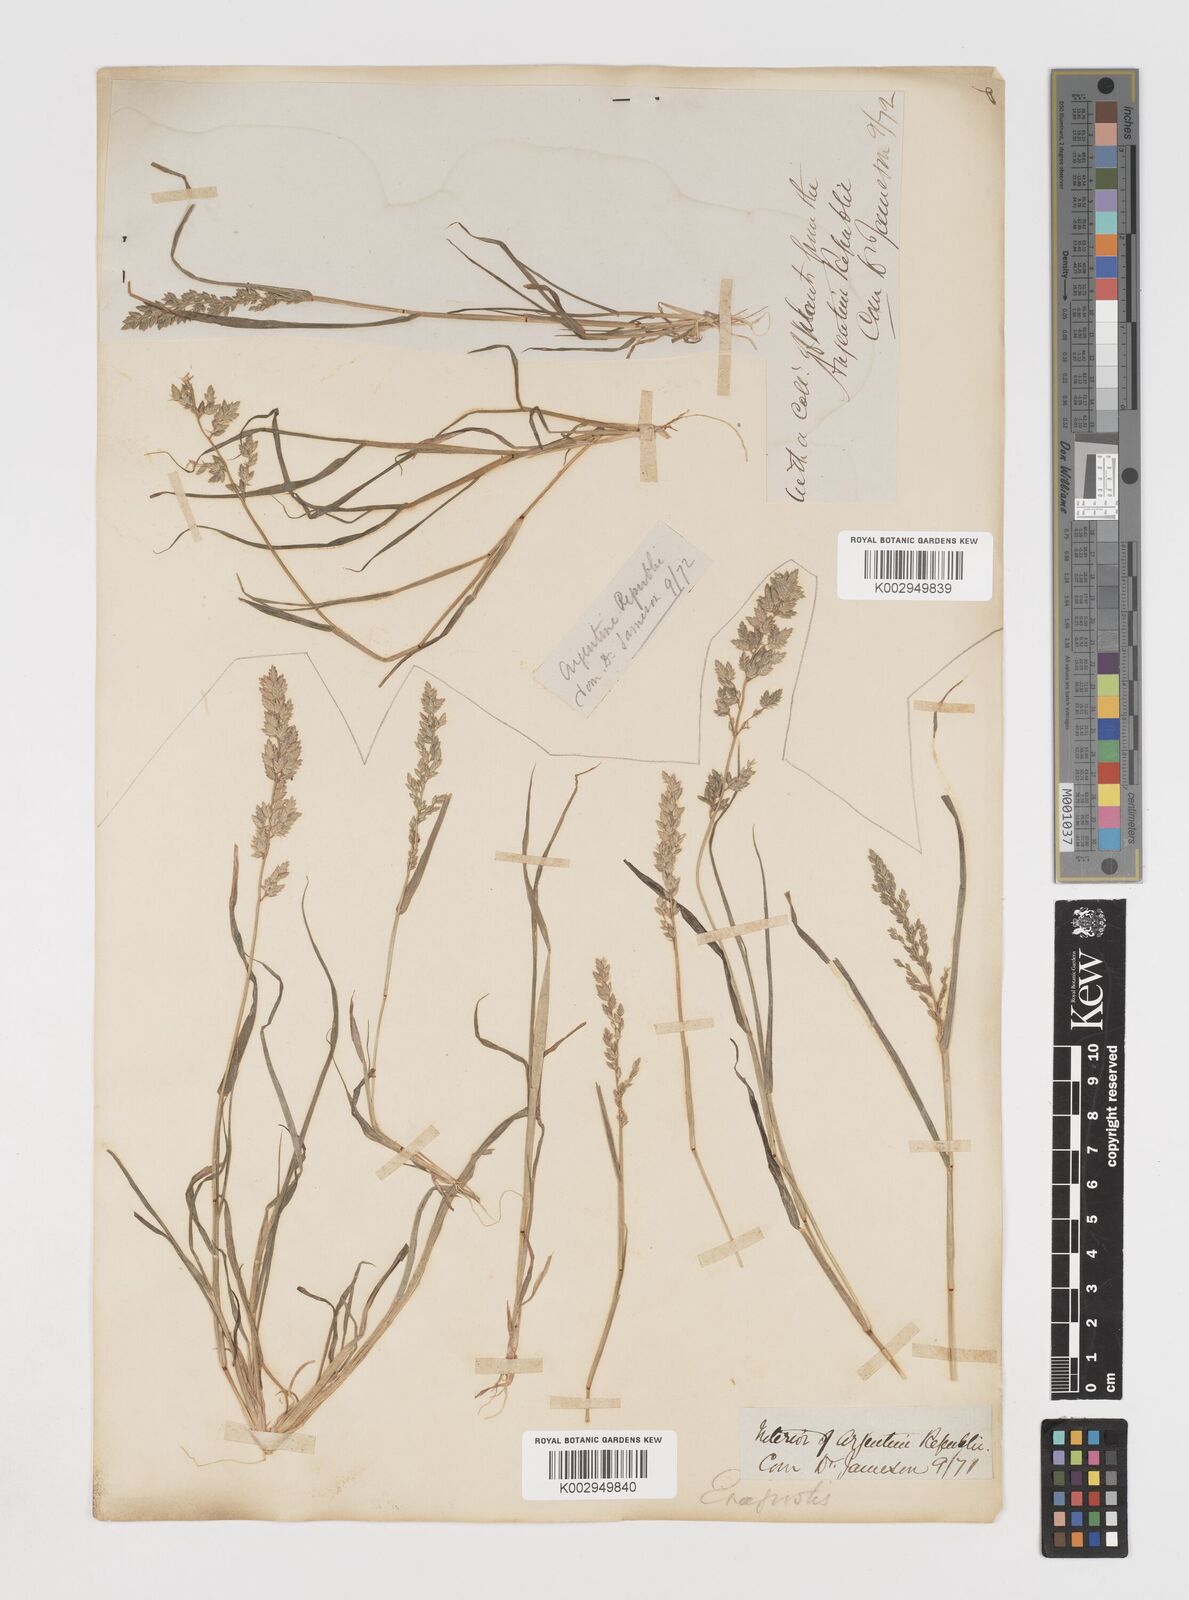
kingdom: Plantae
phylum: Tracheophyta
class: Liliopsida
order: Poales
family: Poaceae
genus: Eragrostis
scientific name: Eragrostis cilianensis
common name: Stinkgrass
